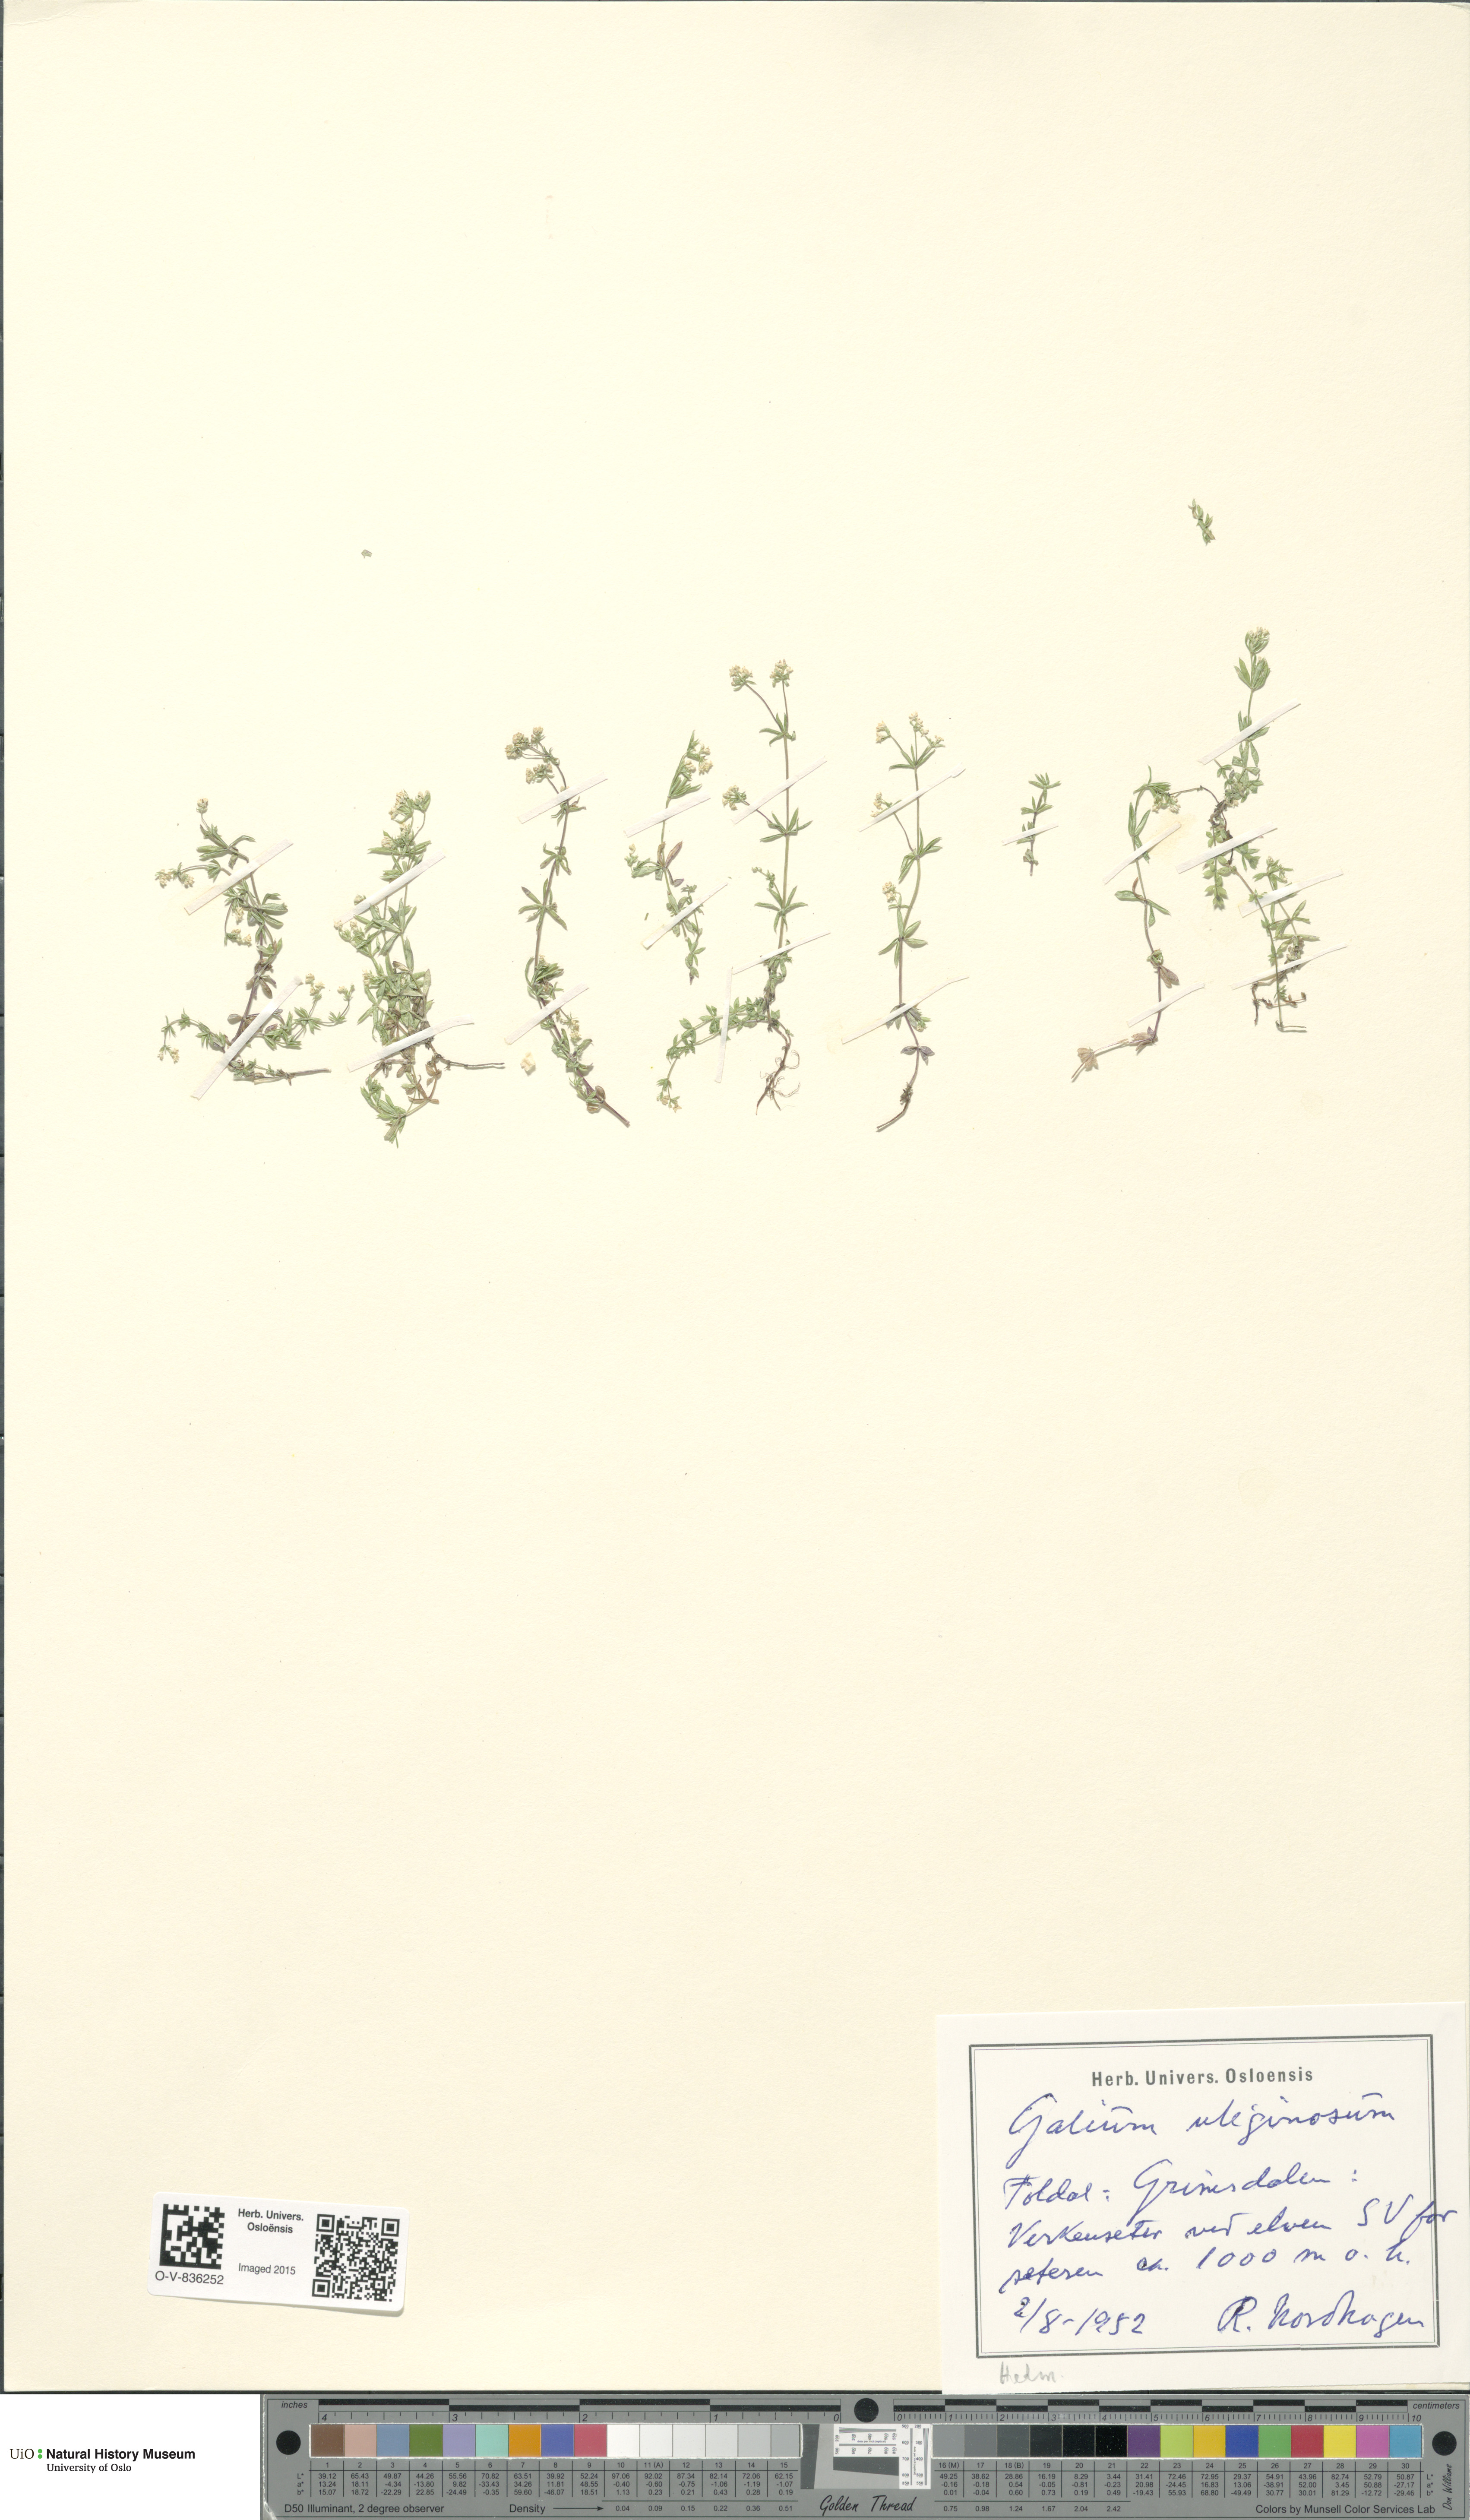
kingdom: Plantae
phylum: Tracheophyta
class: Magnoliopsida
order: Gentianales
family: Rubiaceae
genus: Galium
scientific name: Galium uliginosum
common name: Fen bedstraw
